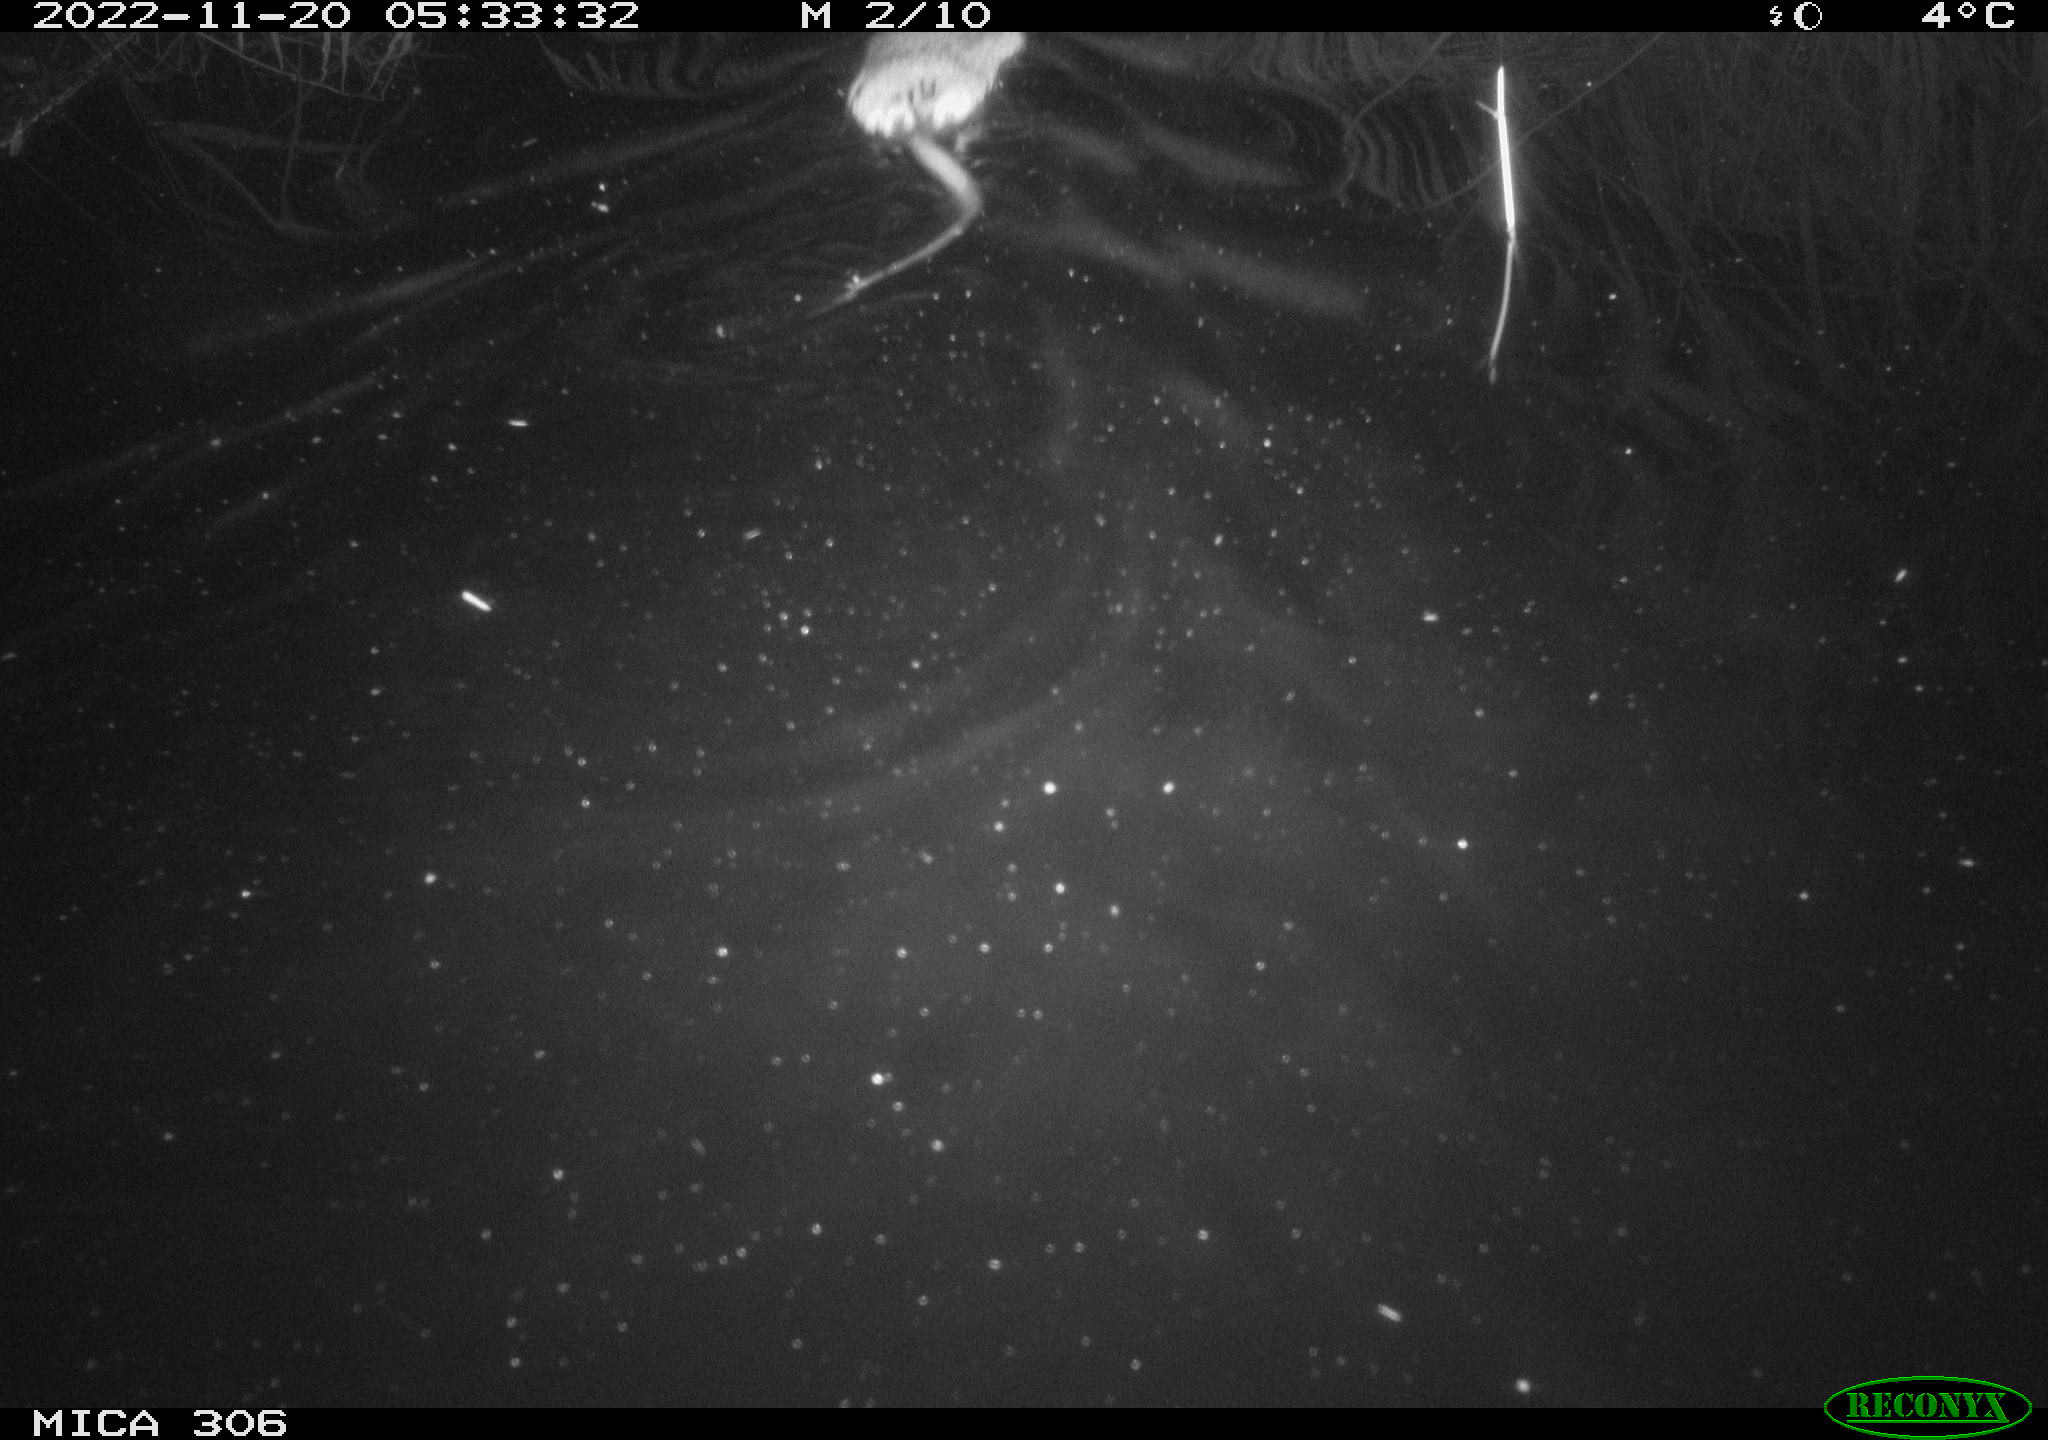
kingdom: Animalia
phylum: Chordata
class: Mammalia
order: Rodentia
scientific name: Rodentia
